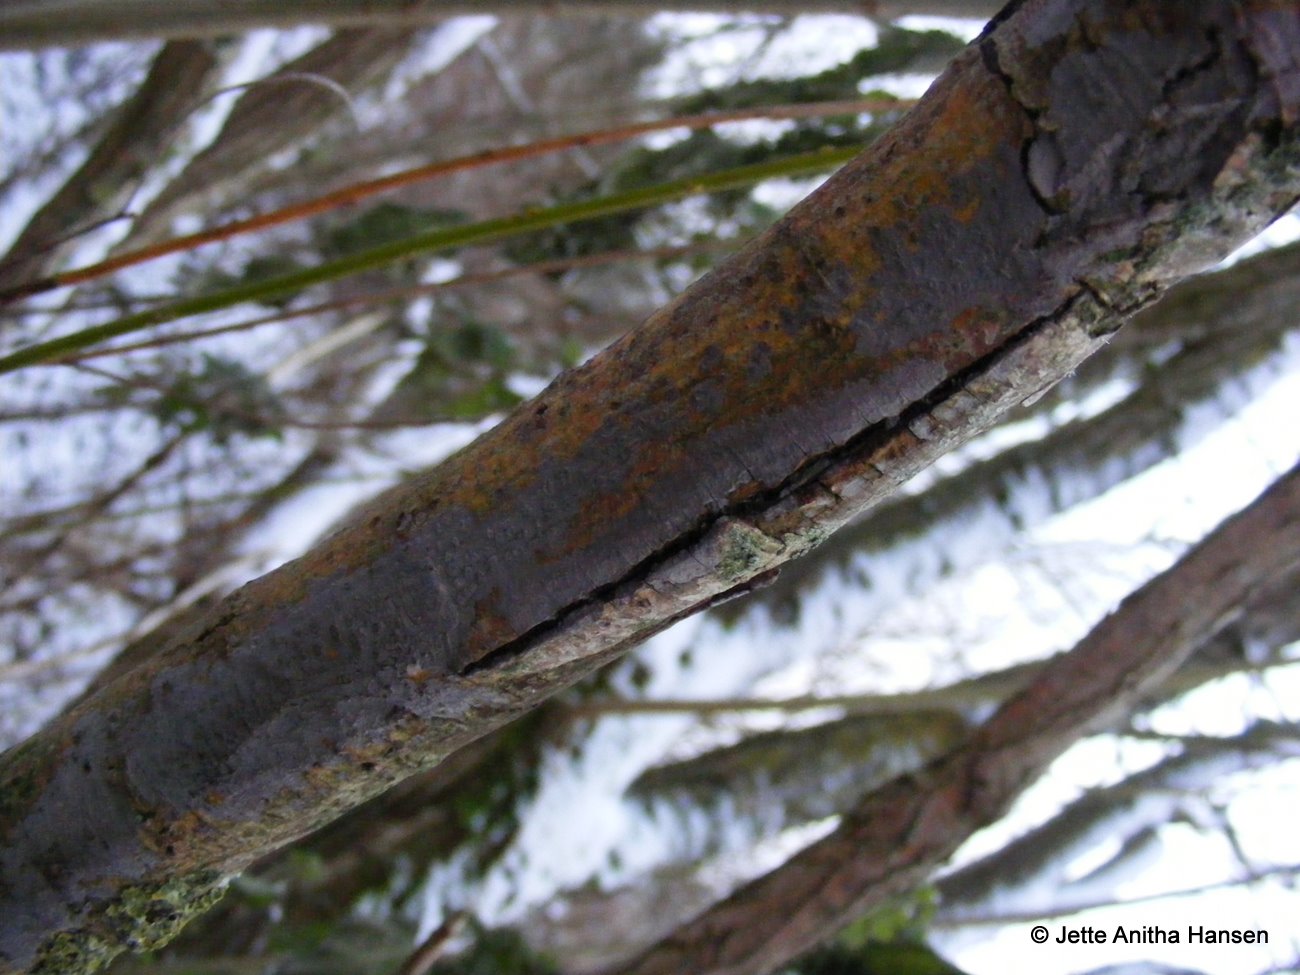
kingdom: Fungi
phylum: Basidiomycota
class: Agaricomycetes
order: Russulales
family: Peniophoraceae
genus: Peniophora
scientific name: Peniophora lycii
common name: grynet voksskind
